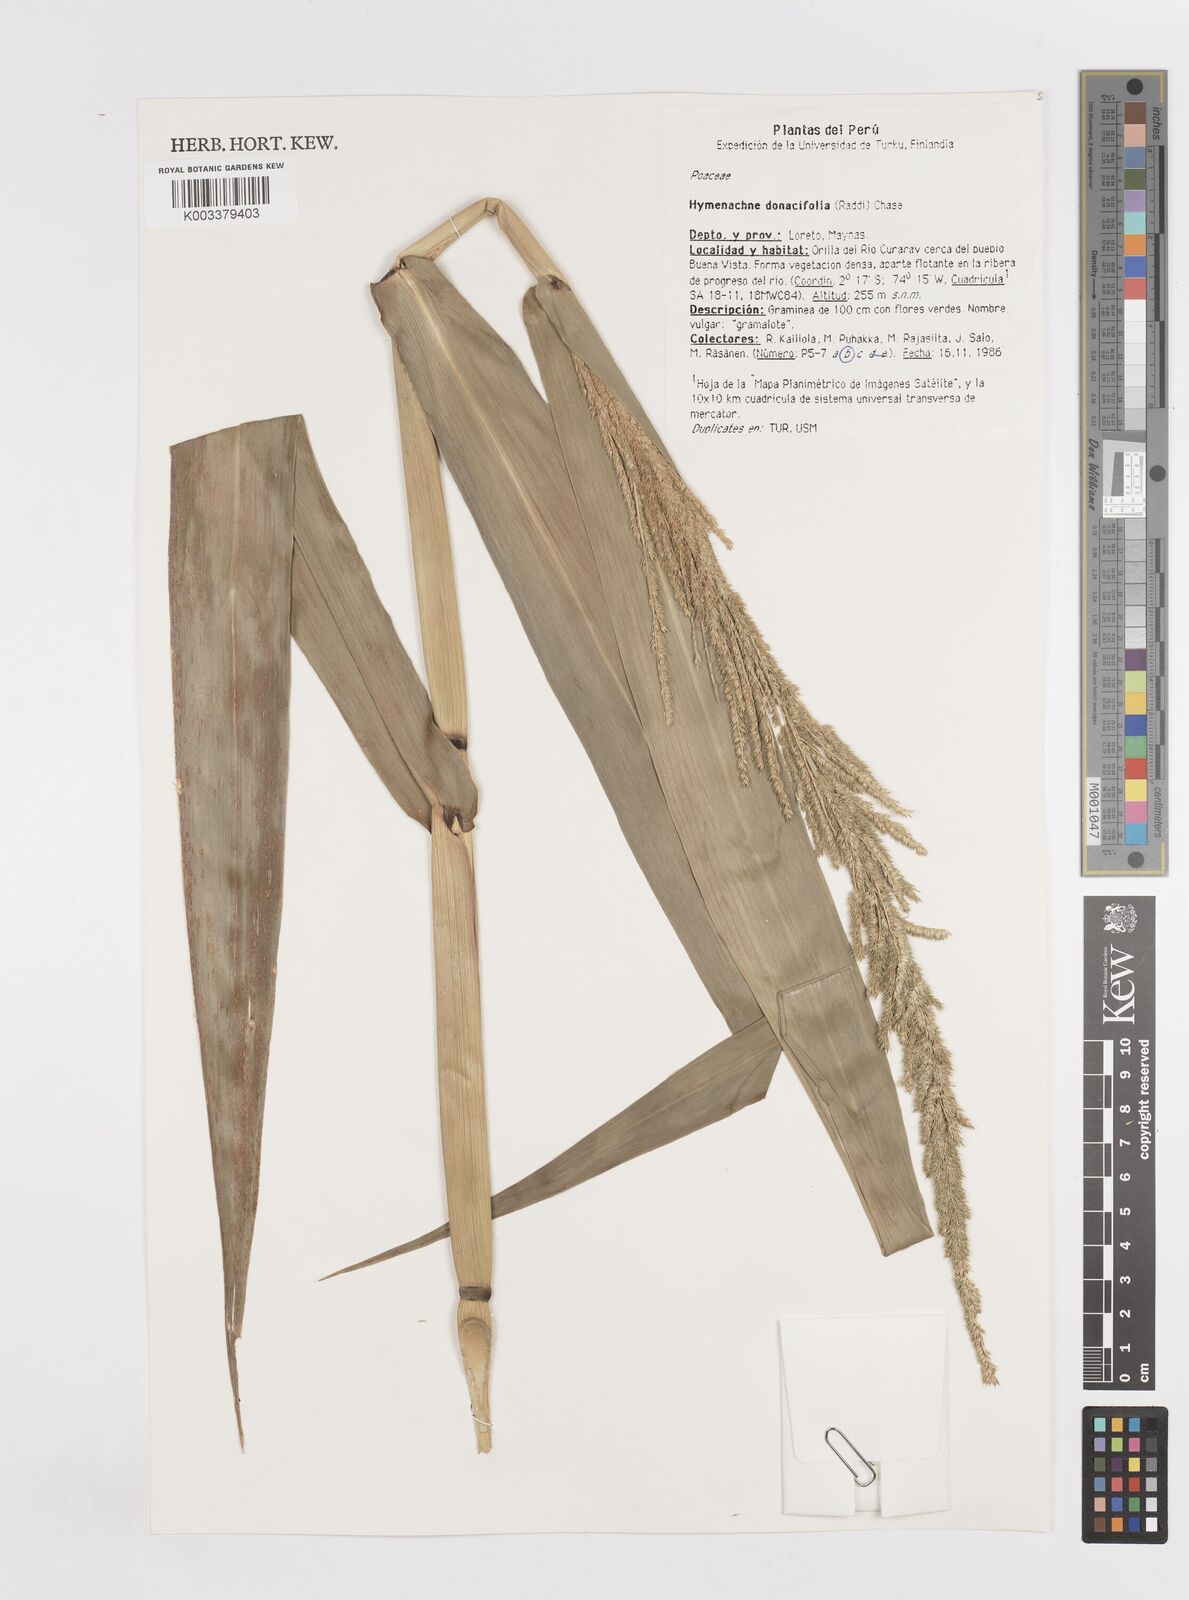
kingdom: Plantae
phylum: Tracheophyta
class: Liliopsida
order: Poales
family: Poaceae
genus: Hymenachne
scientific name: Hymenachne donacifolia
